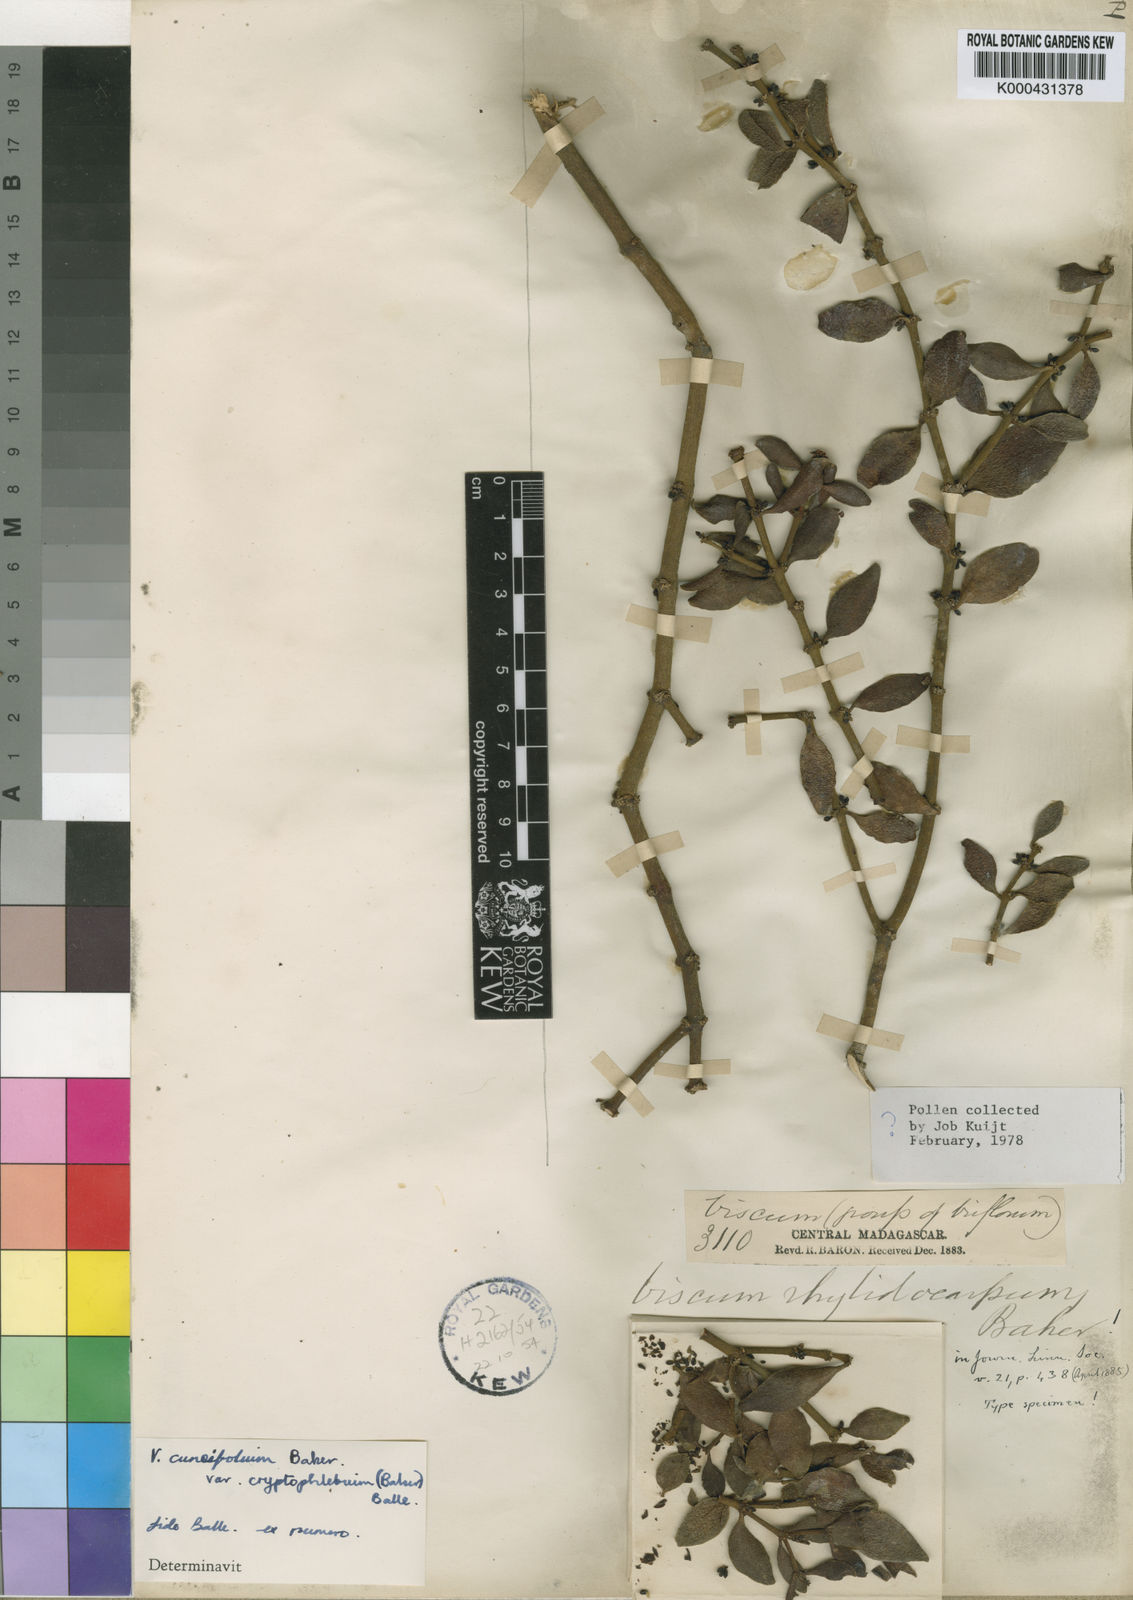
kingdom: Plantae
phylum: Tracheophyta
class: Magnoliopsida
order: Santalales
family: Viscaceae
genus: Viscum
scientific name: Viscum cuneifolium
